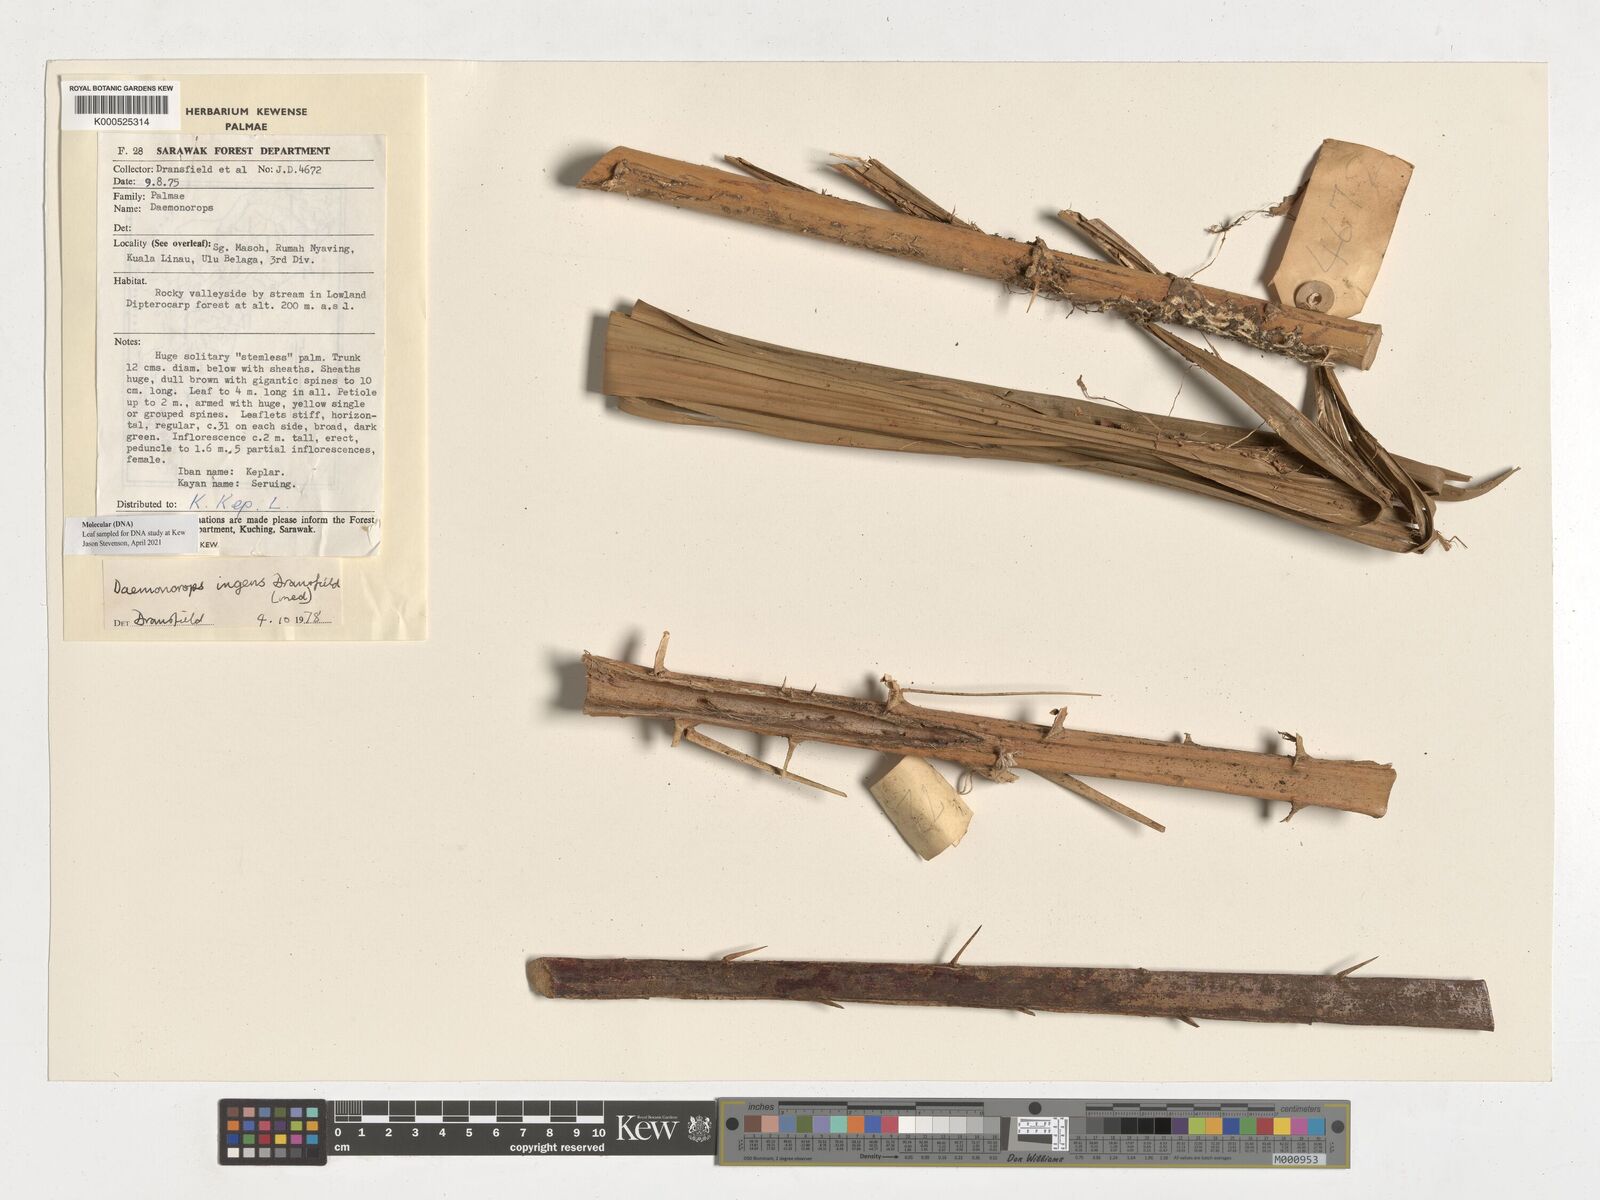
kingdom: Plantae
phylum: Tracheophyta
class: Liliopsida
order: Arecales
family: Arecaceae
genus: Calamus
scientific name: Calamus ingens
